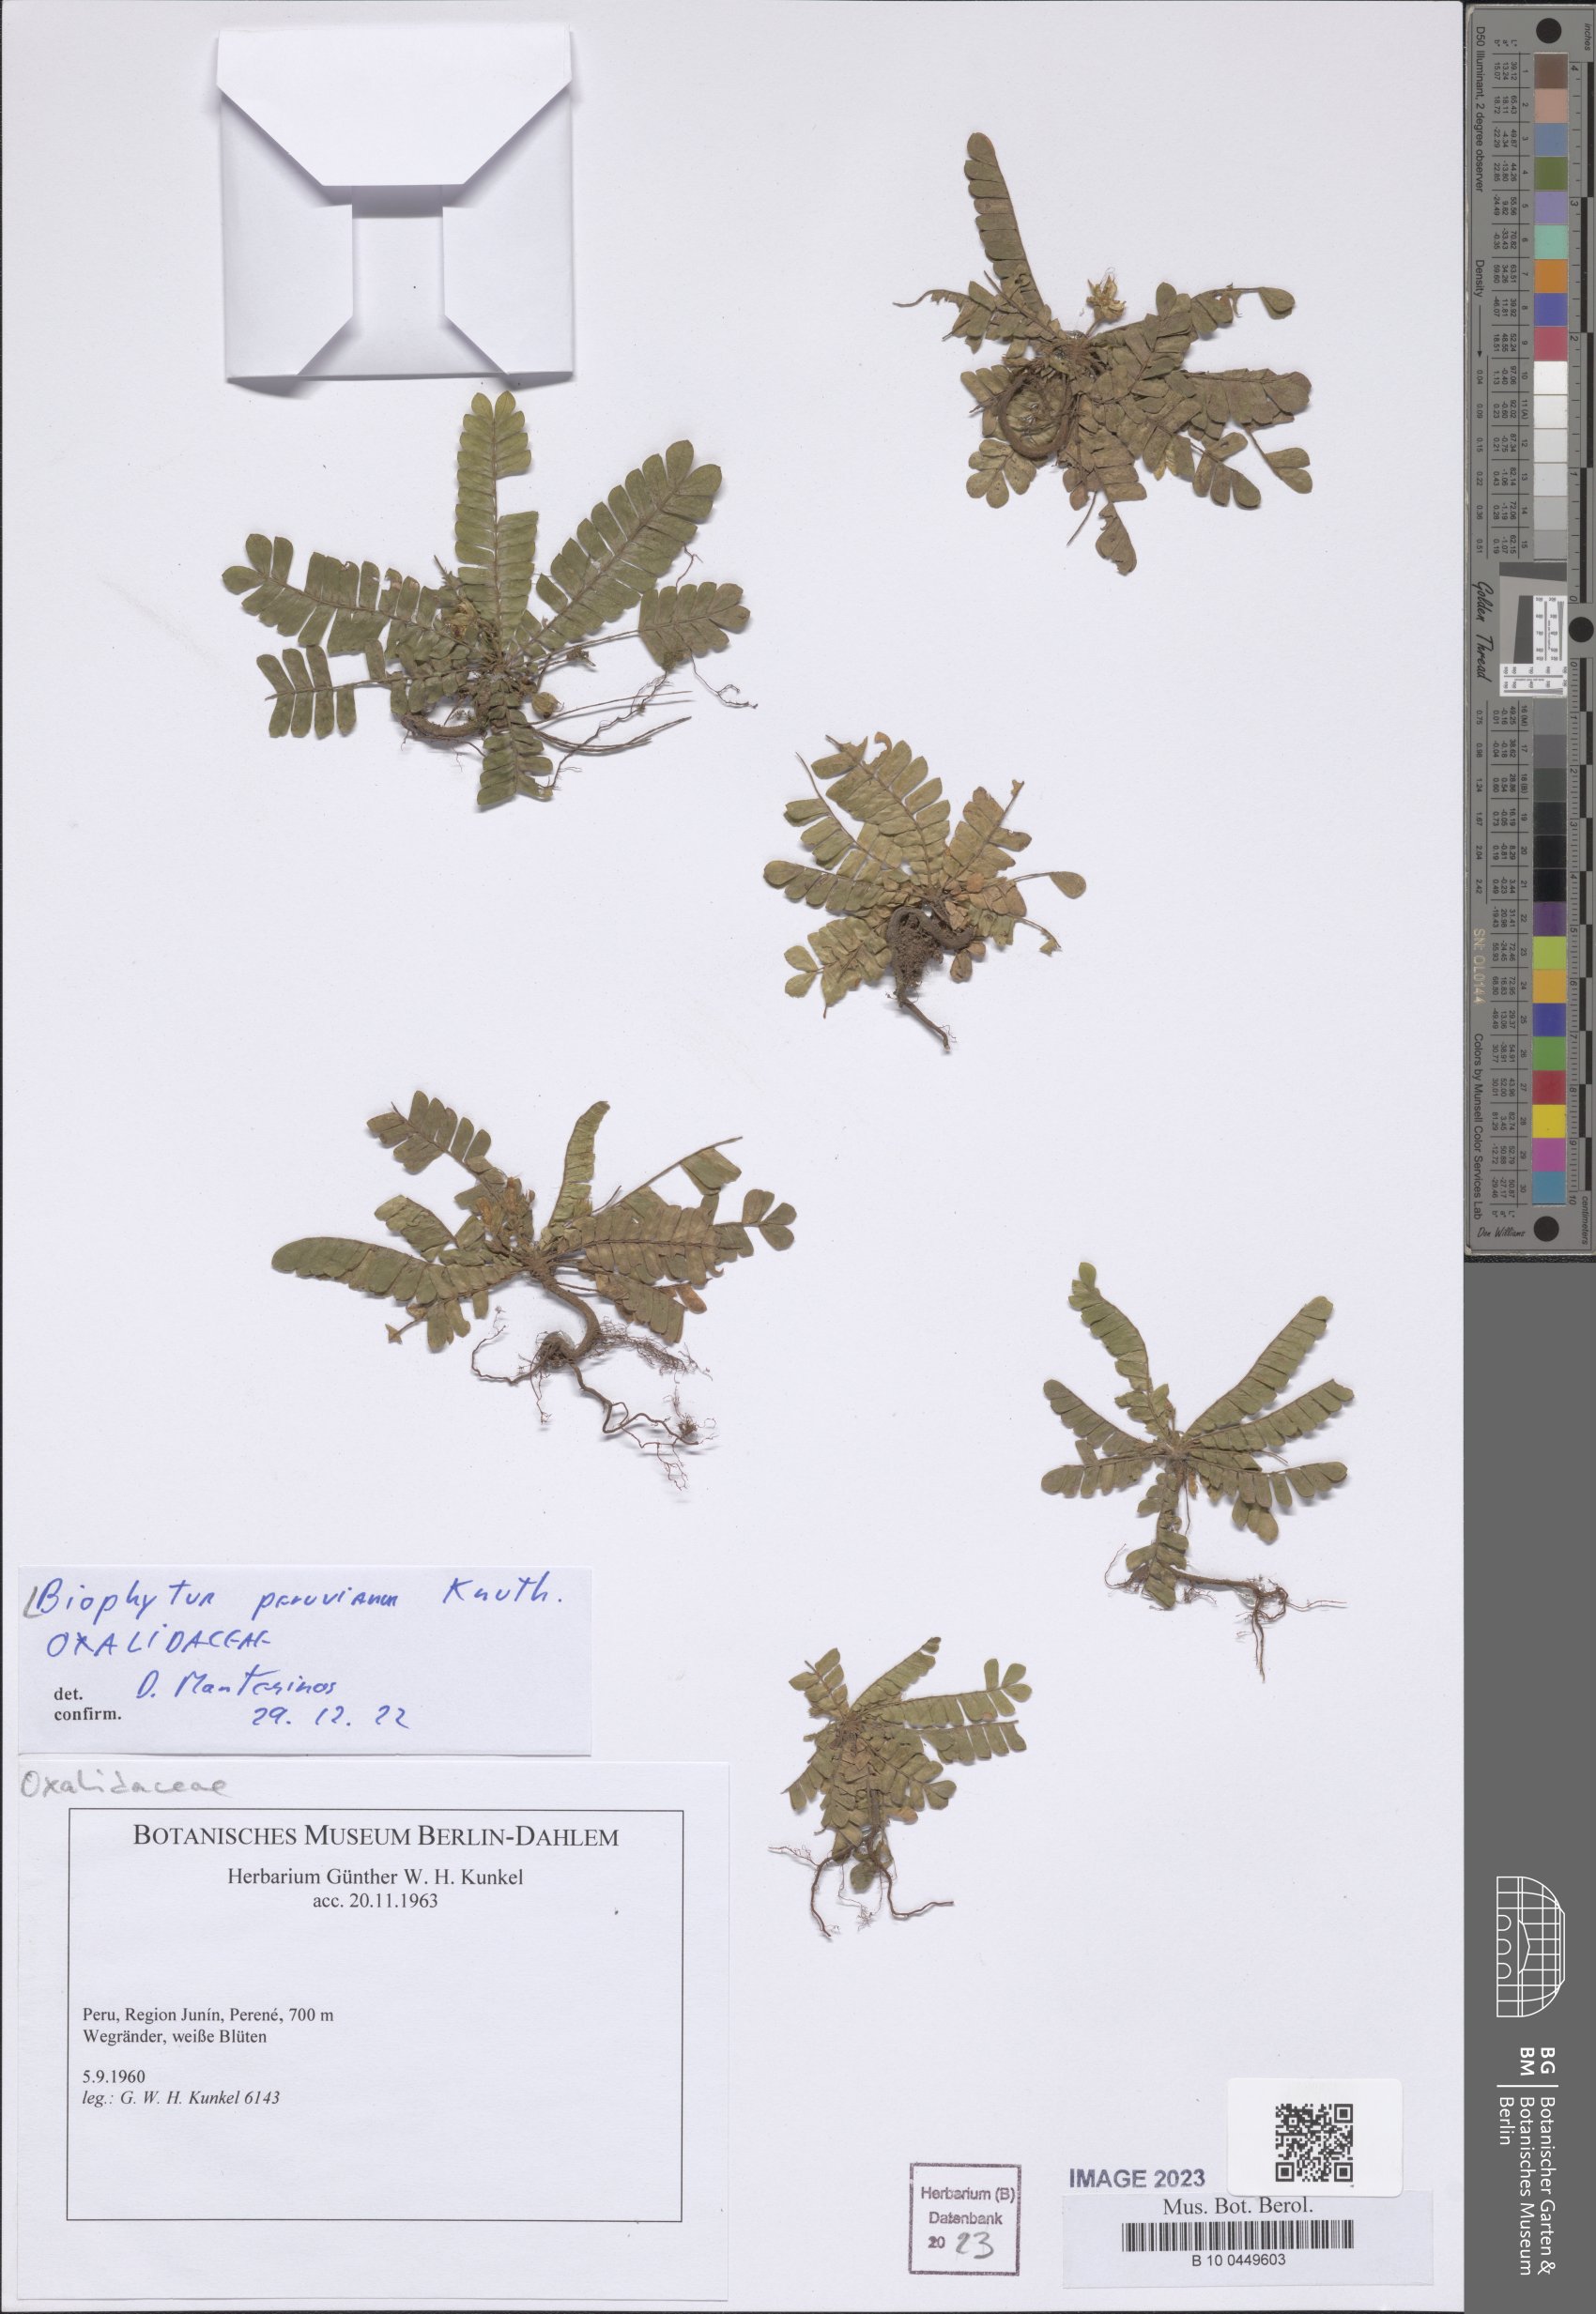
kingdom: Plantae
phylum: Tracheophyta
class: Magnoliopsida
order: Oxalidales
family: Oxalidaceae
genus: Biophytum
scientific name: Biophytum peruvianum
